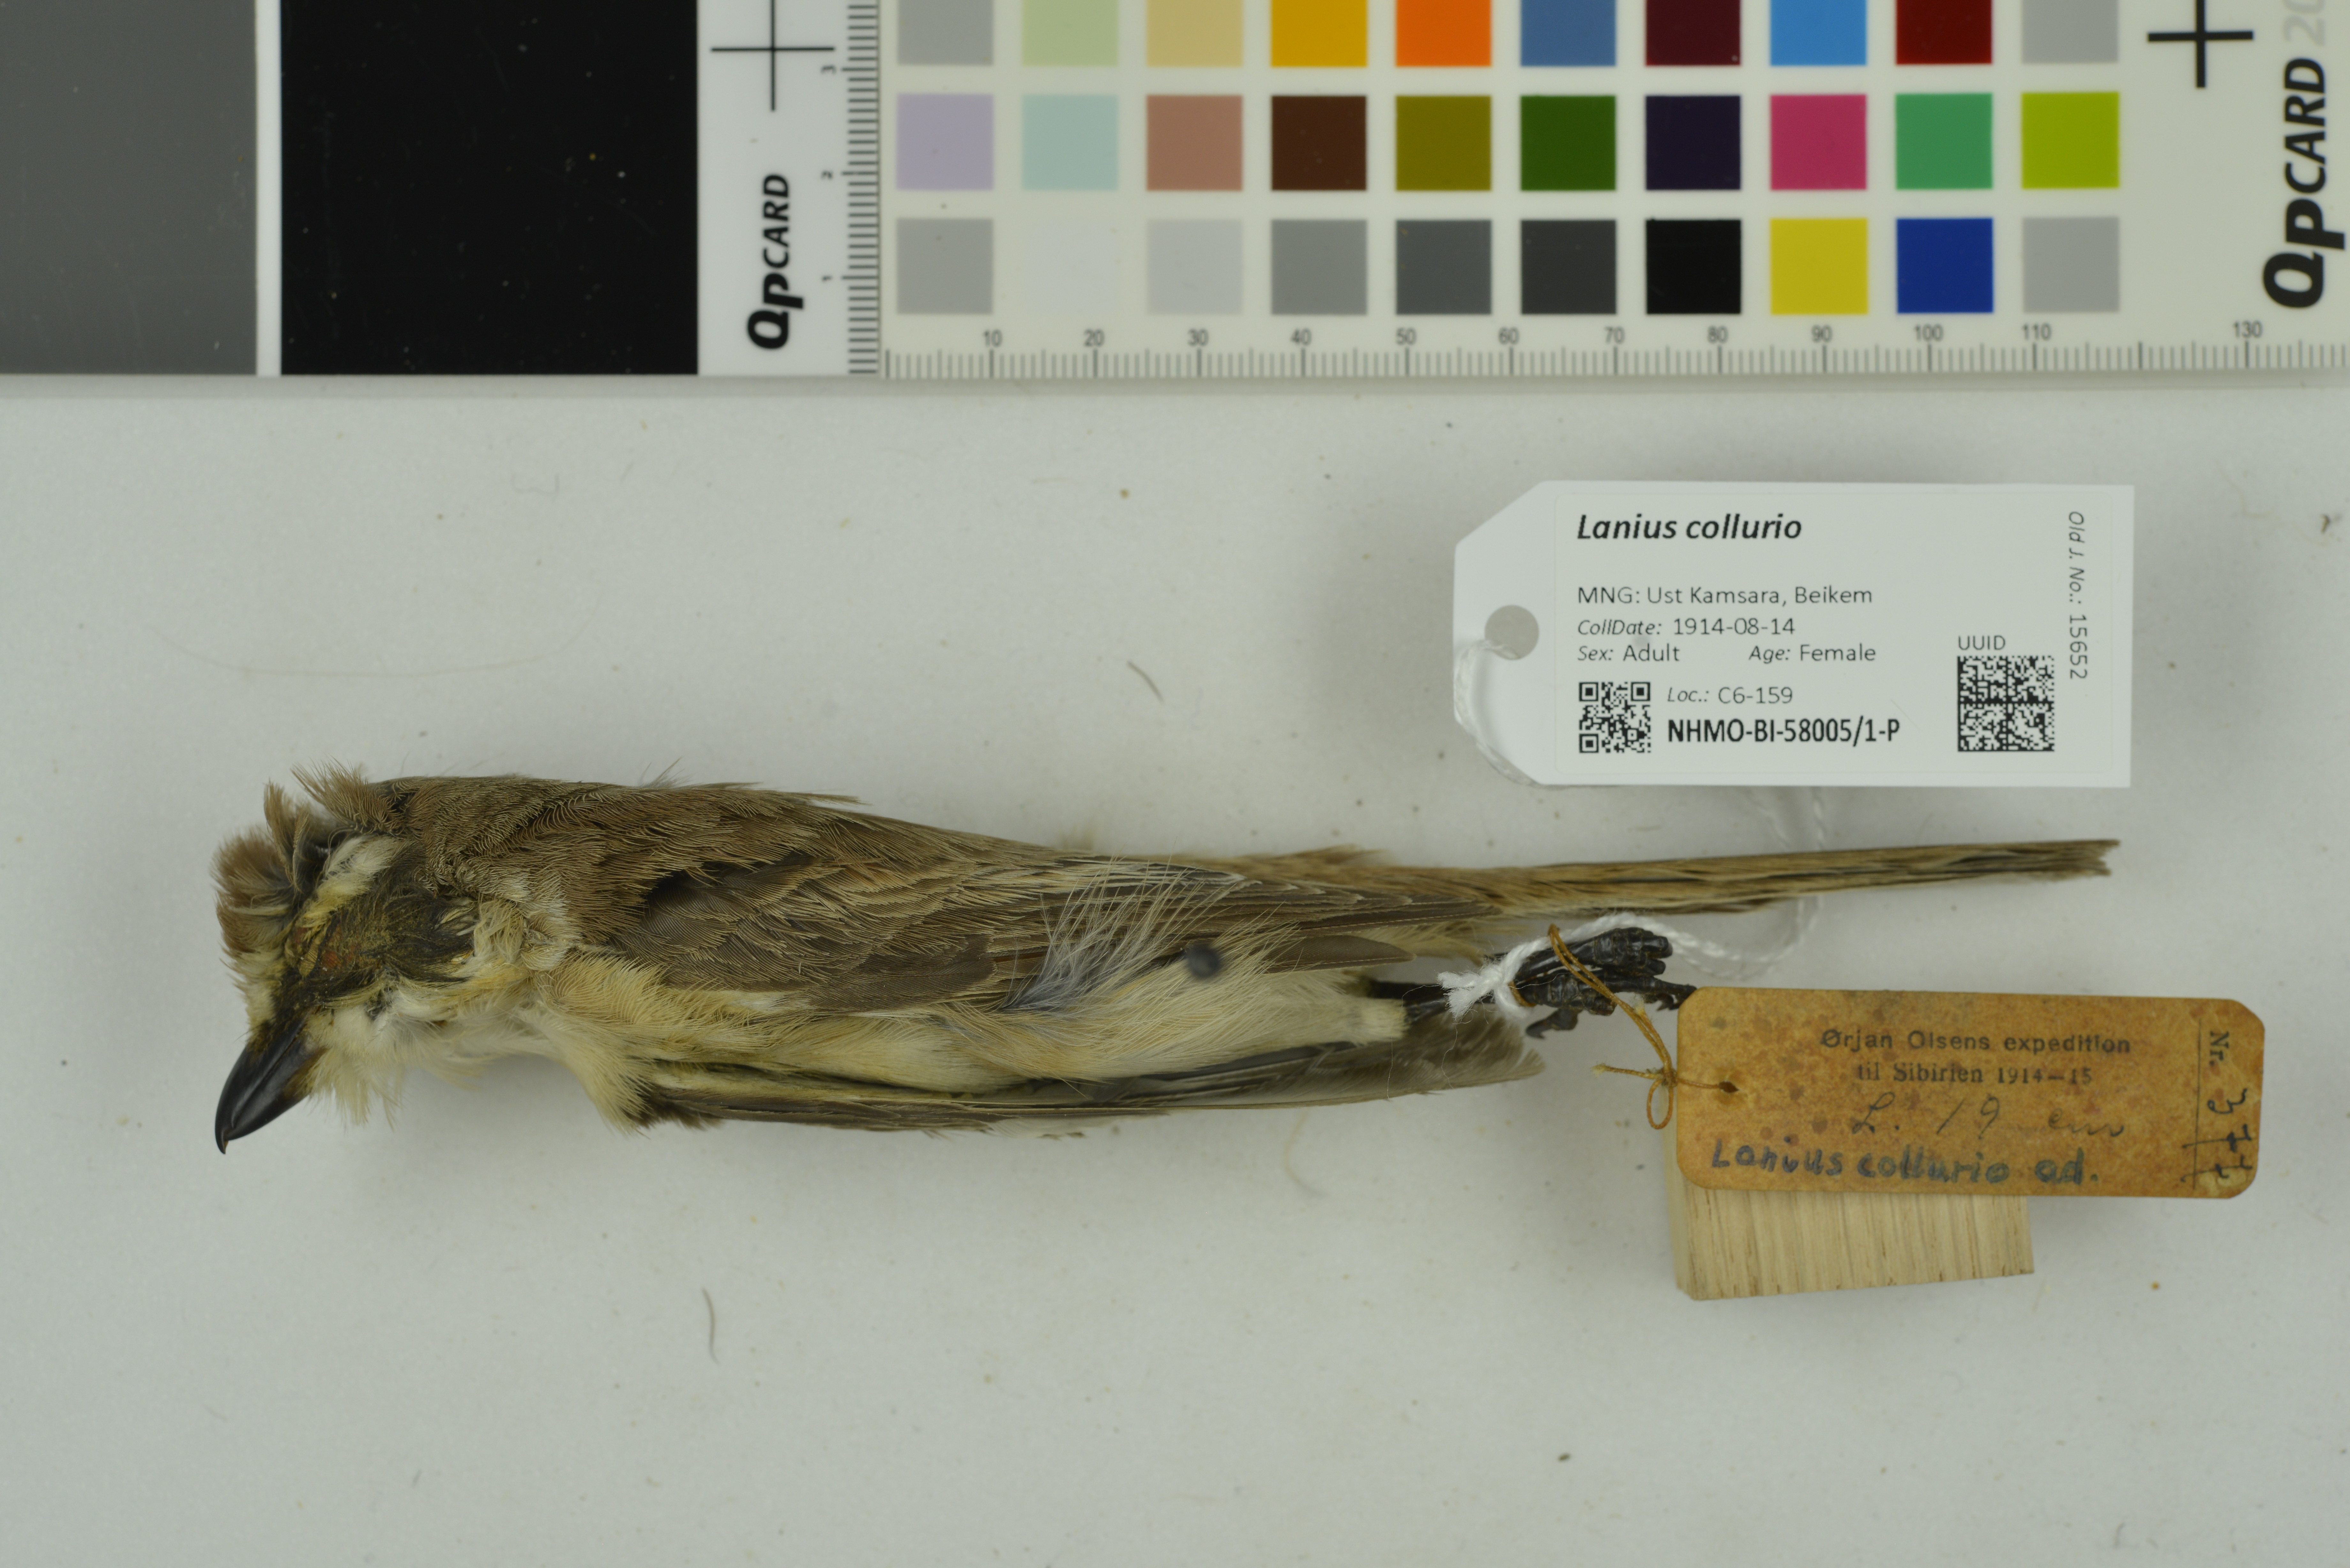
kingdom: Animalia
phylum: Chordata
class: Aves
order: Passeriformes
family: Laniidae
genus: Lanius
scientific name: Lanius collurio
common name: Red-backed shrike
